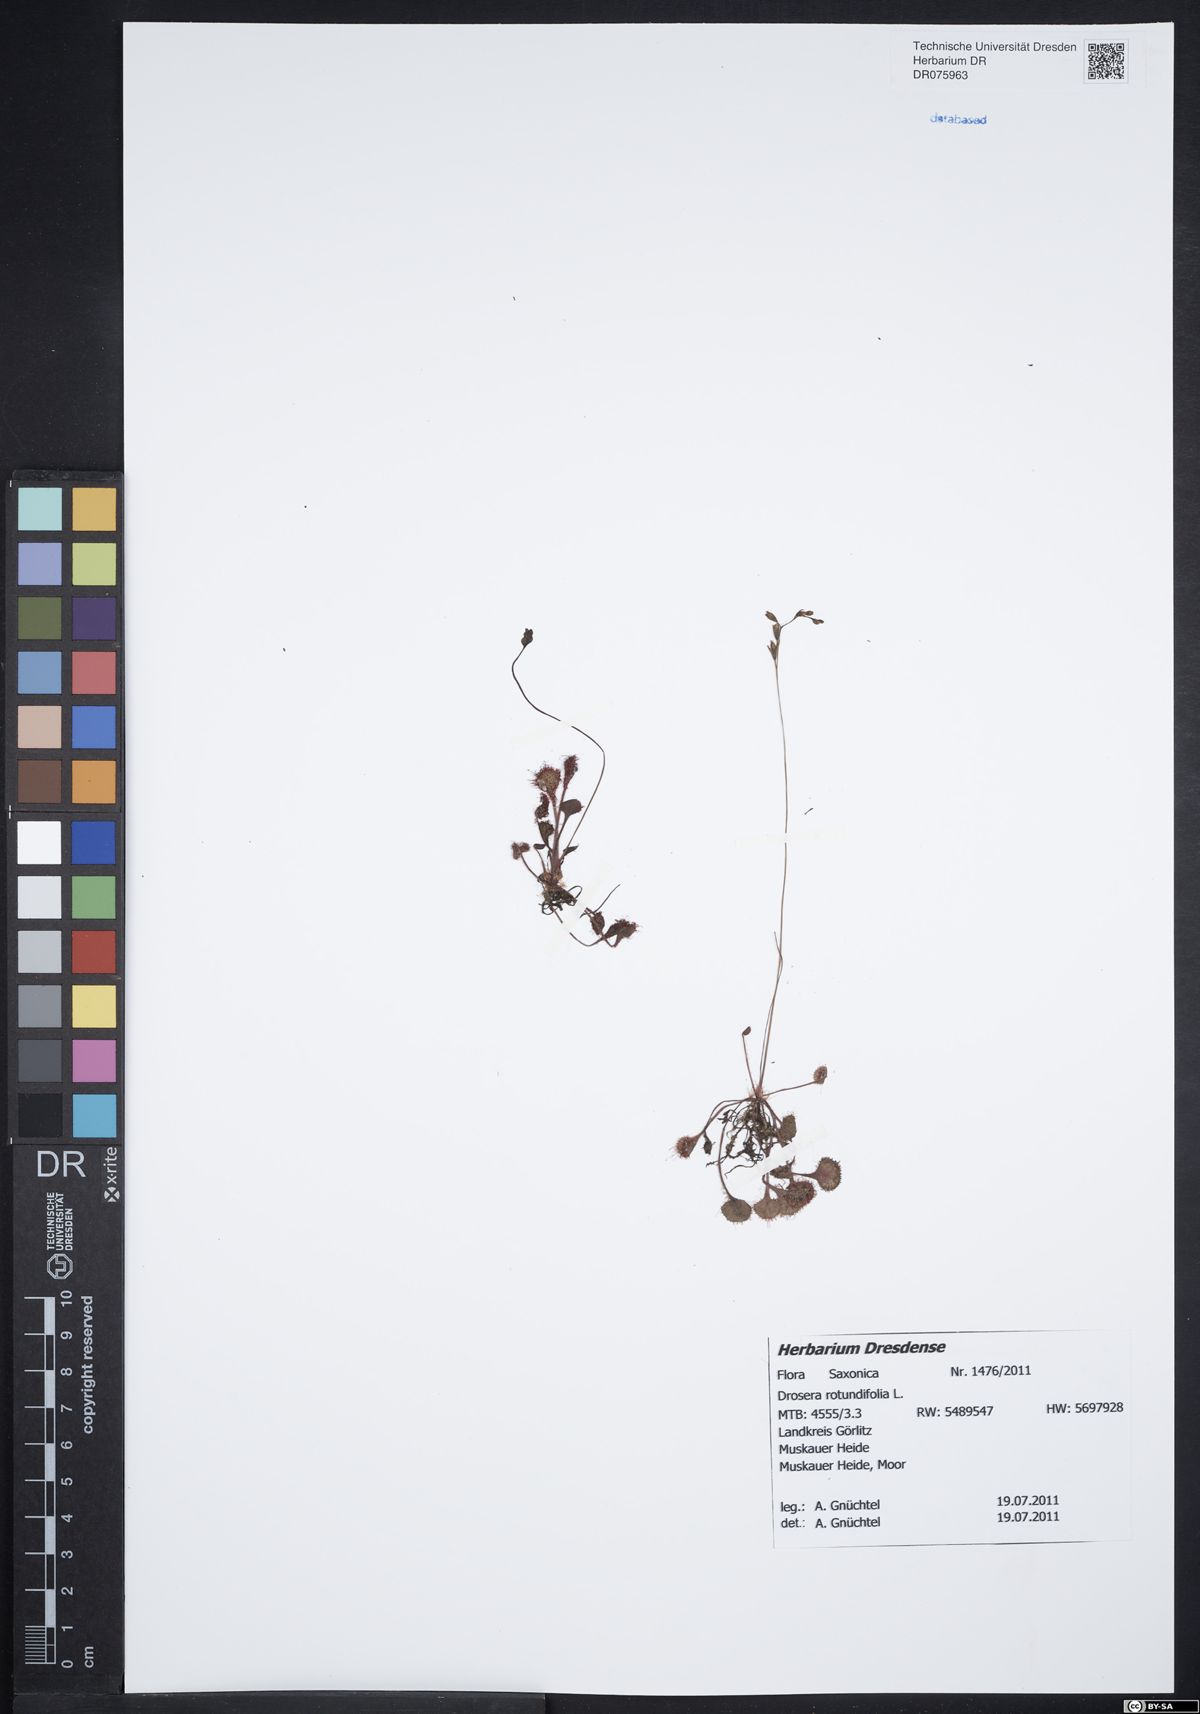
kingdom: Plantae
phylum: Tracheophyta
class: Magnoliopsida
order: Caryophyllales
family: Droseraceae
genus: Drosera
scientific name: Drosera rotundifolia
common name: Round-leaved sundew
